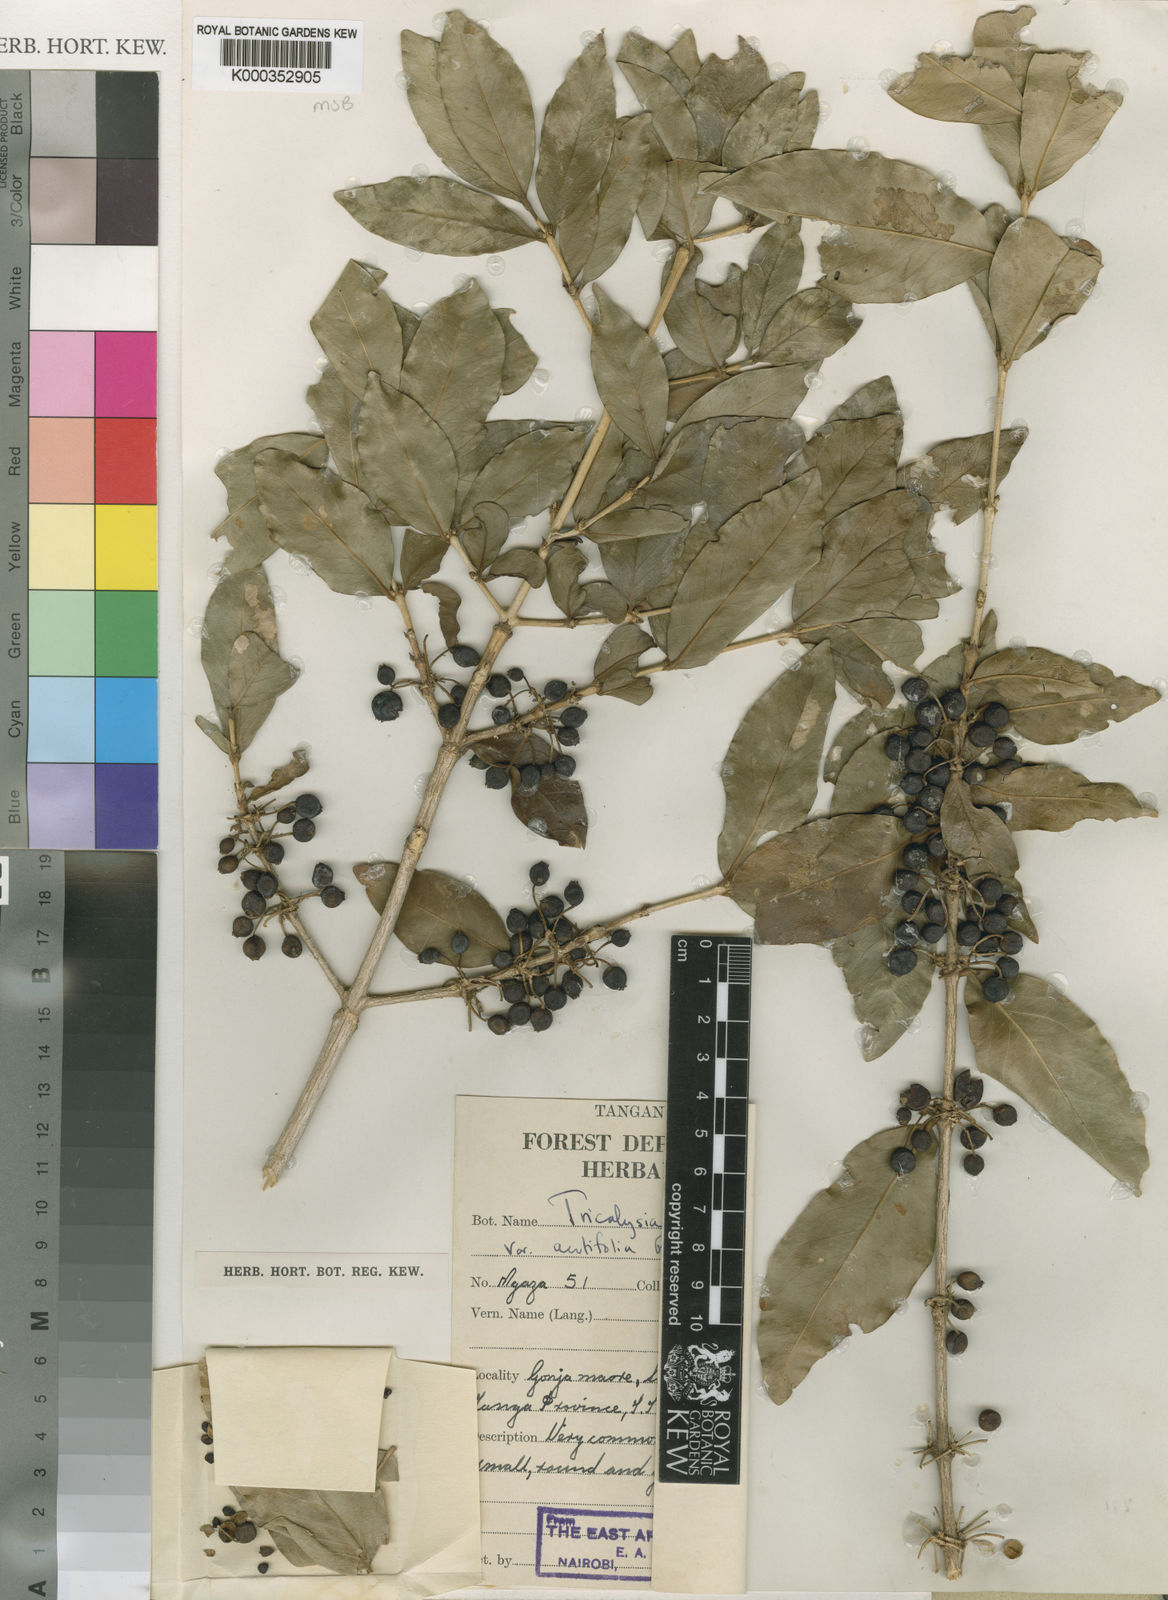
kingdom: Plantae
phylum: Tracheophyta
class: Magnoliopsida
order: Gentianales
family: Rubiaceae
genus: Empogona
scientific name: Empogona ovalifolia
